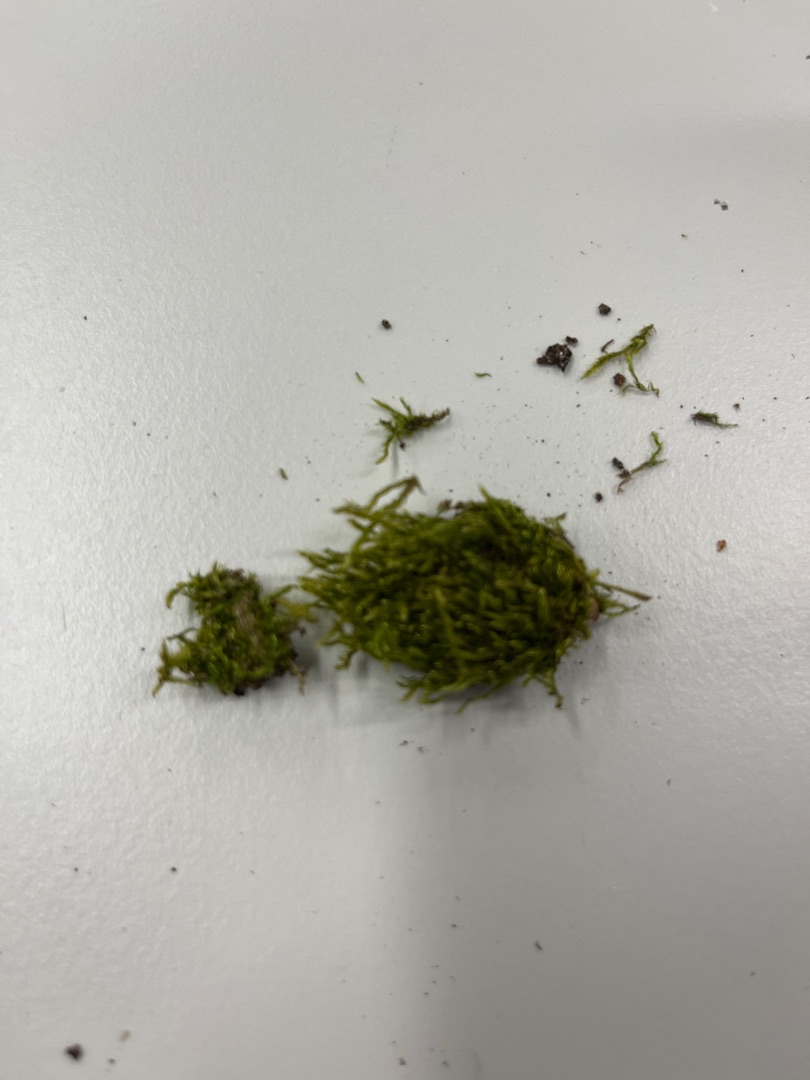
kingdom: Plantae
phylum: Bryophyta
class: Bryopsida
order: Hypnales
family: Hypnaceae
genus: Hypnum
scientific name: Hypnum
